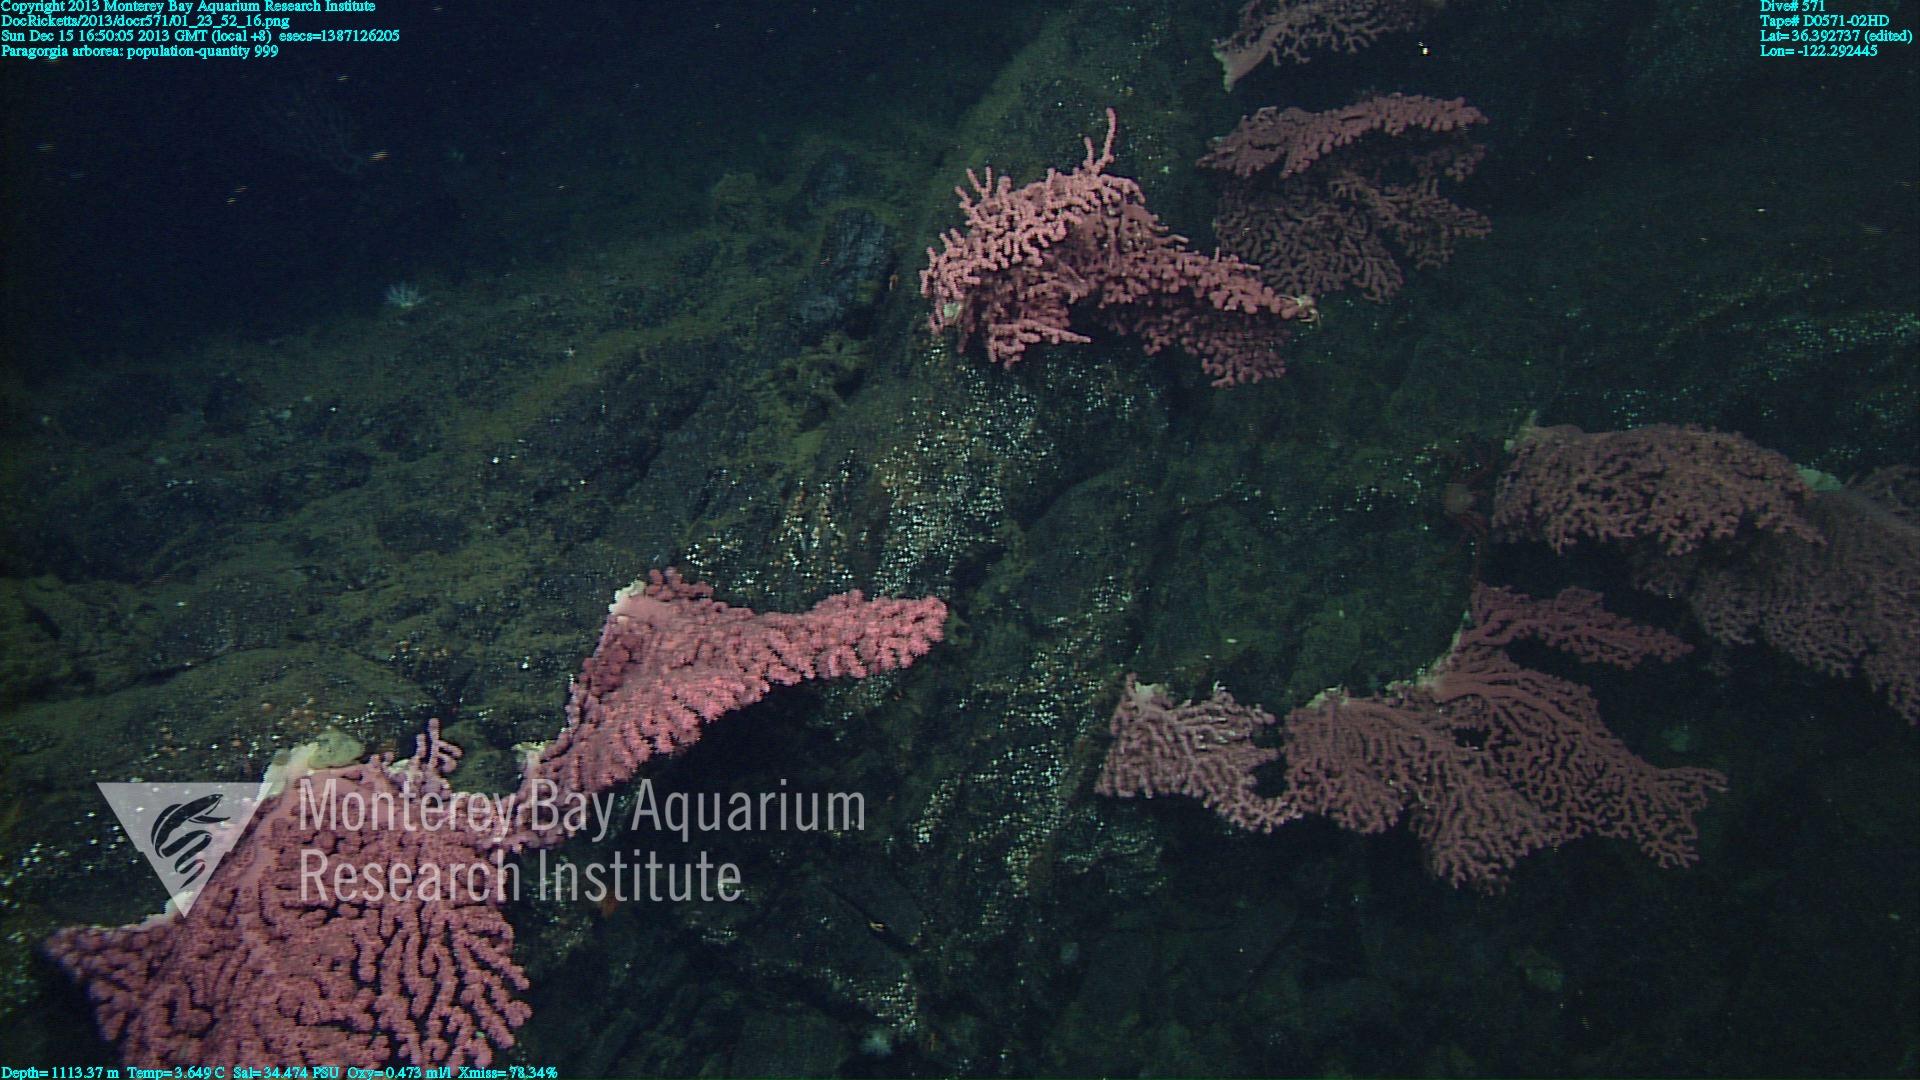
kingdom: Animalia
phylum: Cnidaria
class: Anthozoa
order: Scleralcyonacea
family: Coralliidae
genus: Paragorgia
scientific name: Paragorgia arborea
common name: Bubble gum coral
